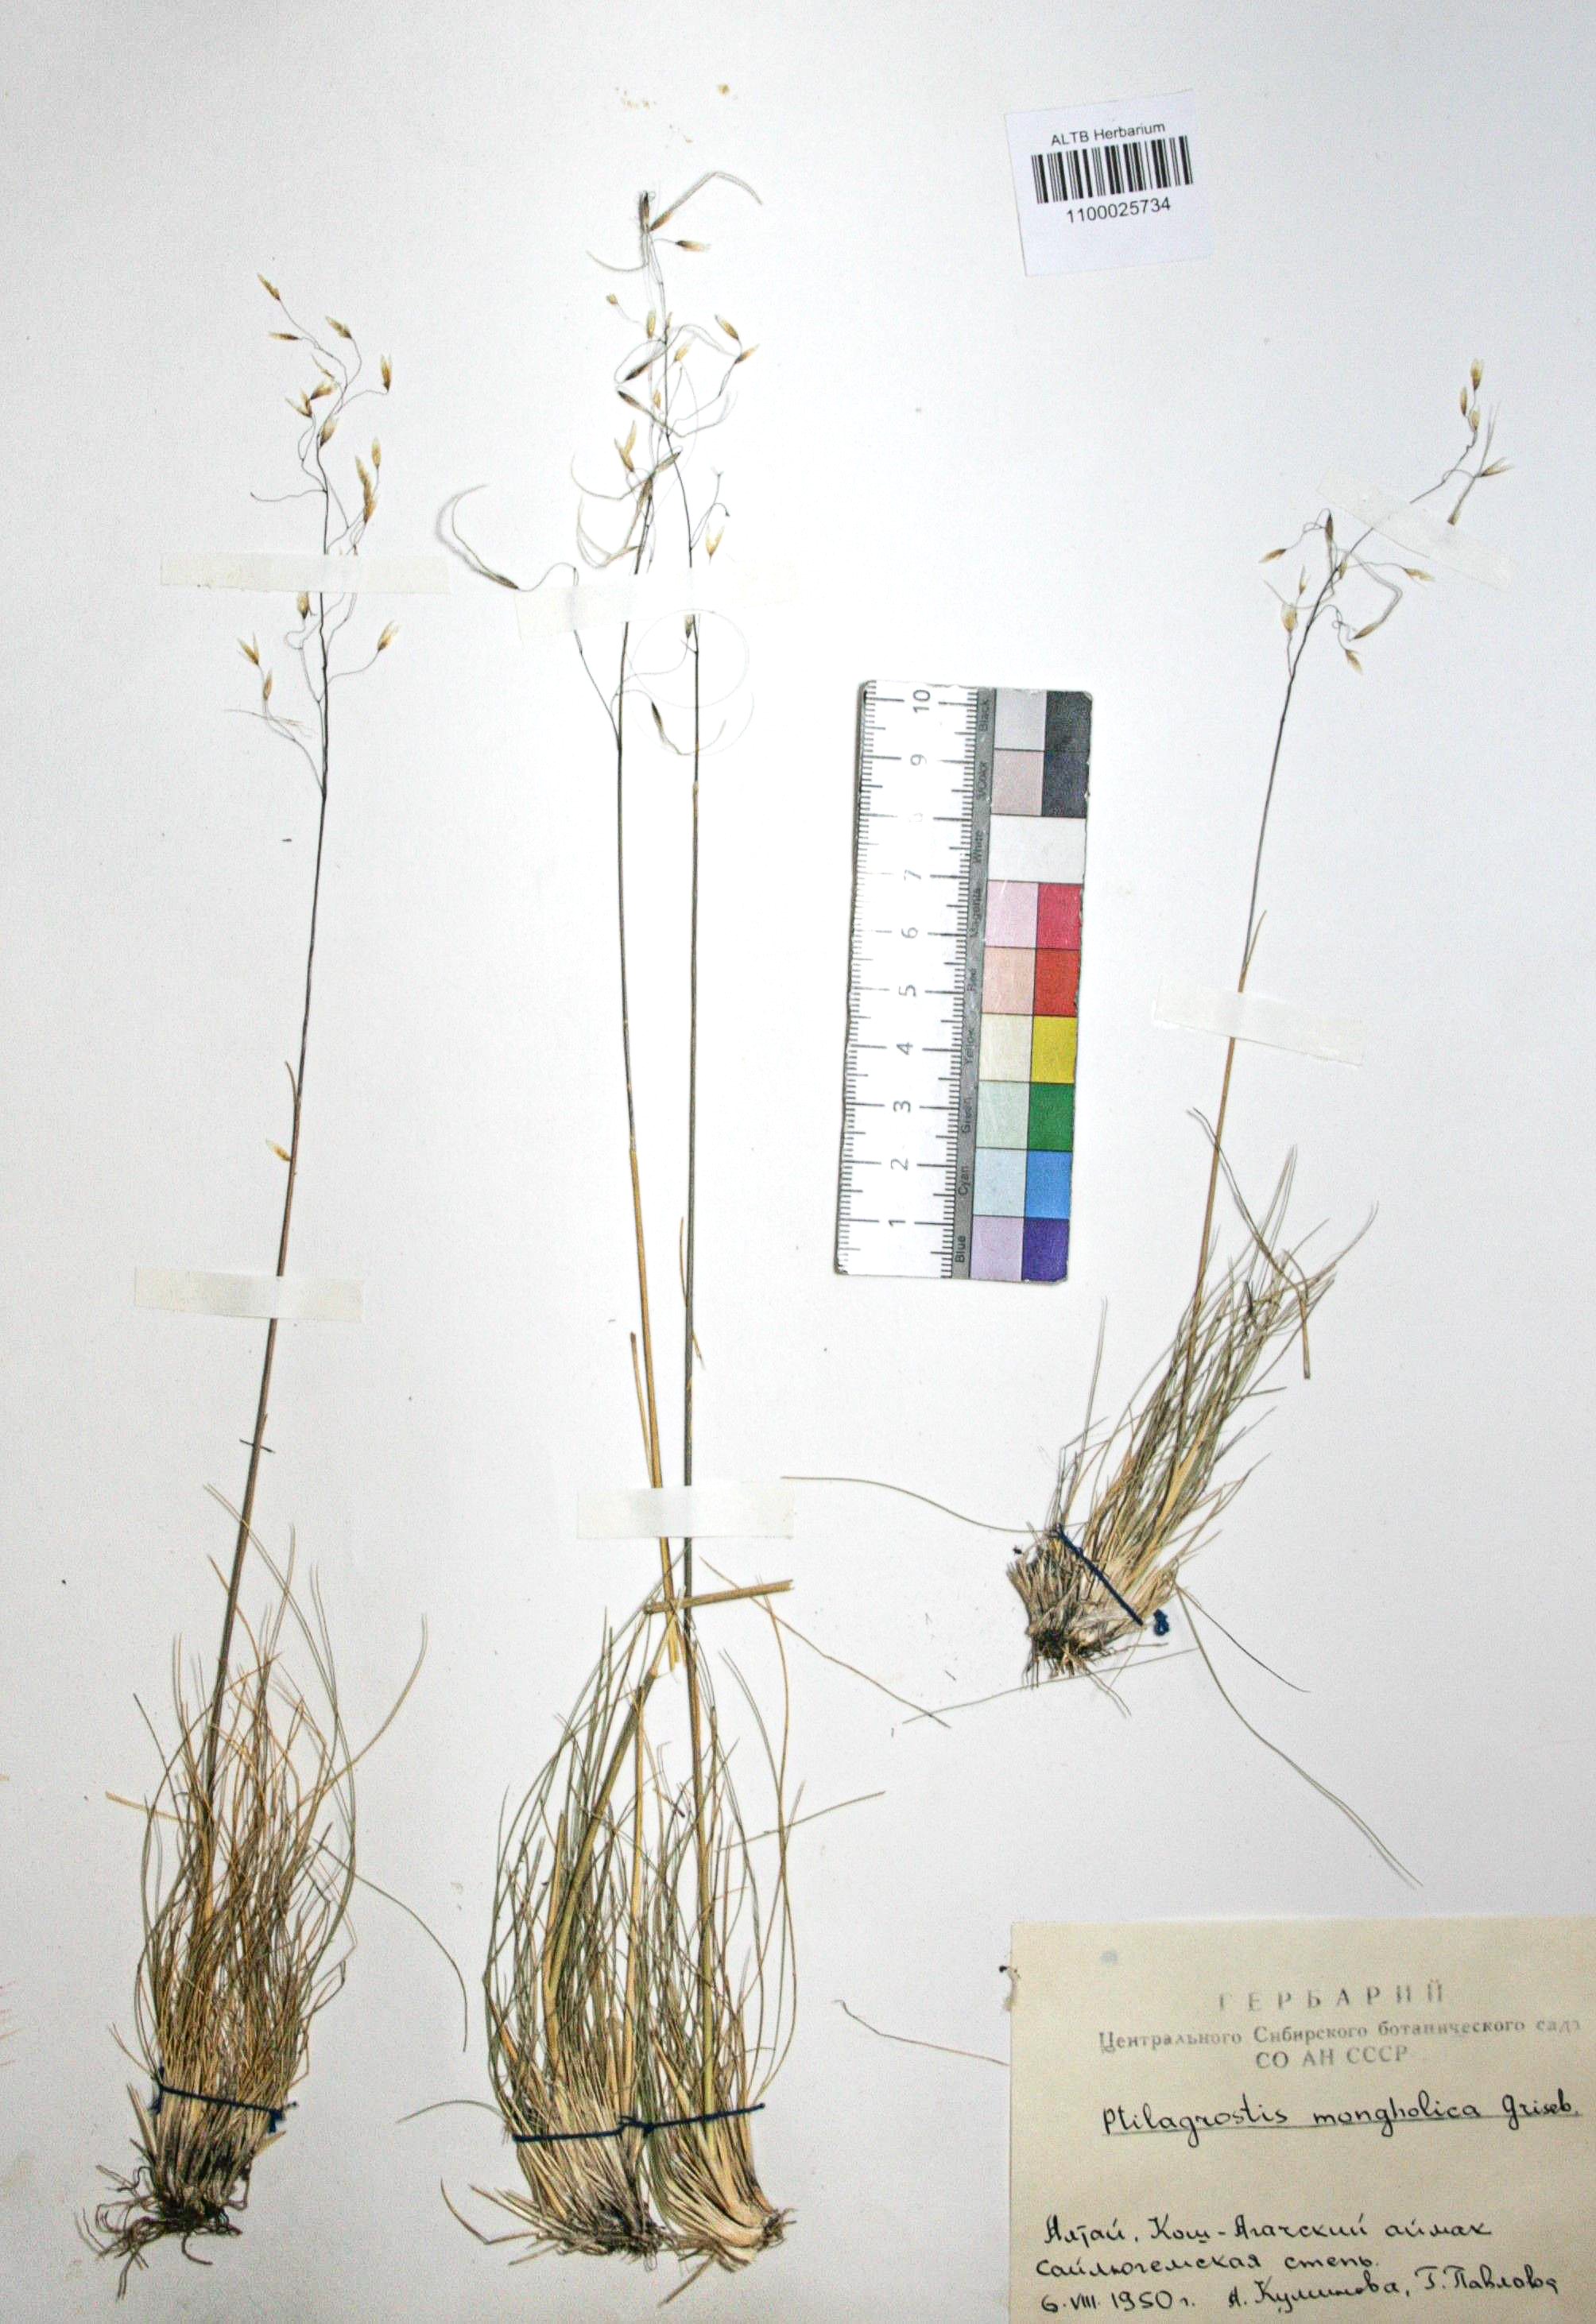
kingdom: Plantae
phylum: Tracheophyta
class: Liliopsida
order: Poales
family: Poaceae
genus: Ptilagrostis
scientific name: Ptilagrostis mongholica
